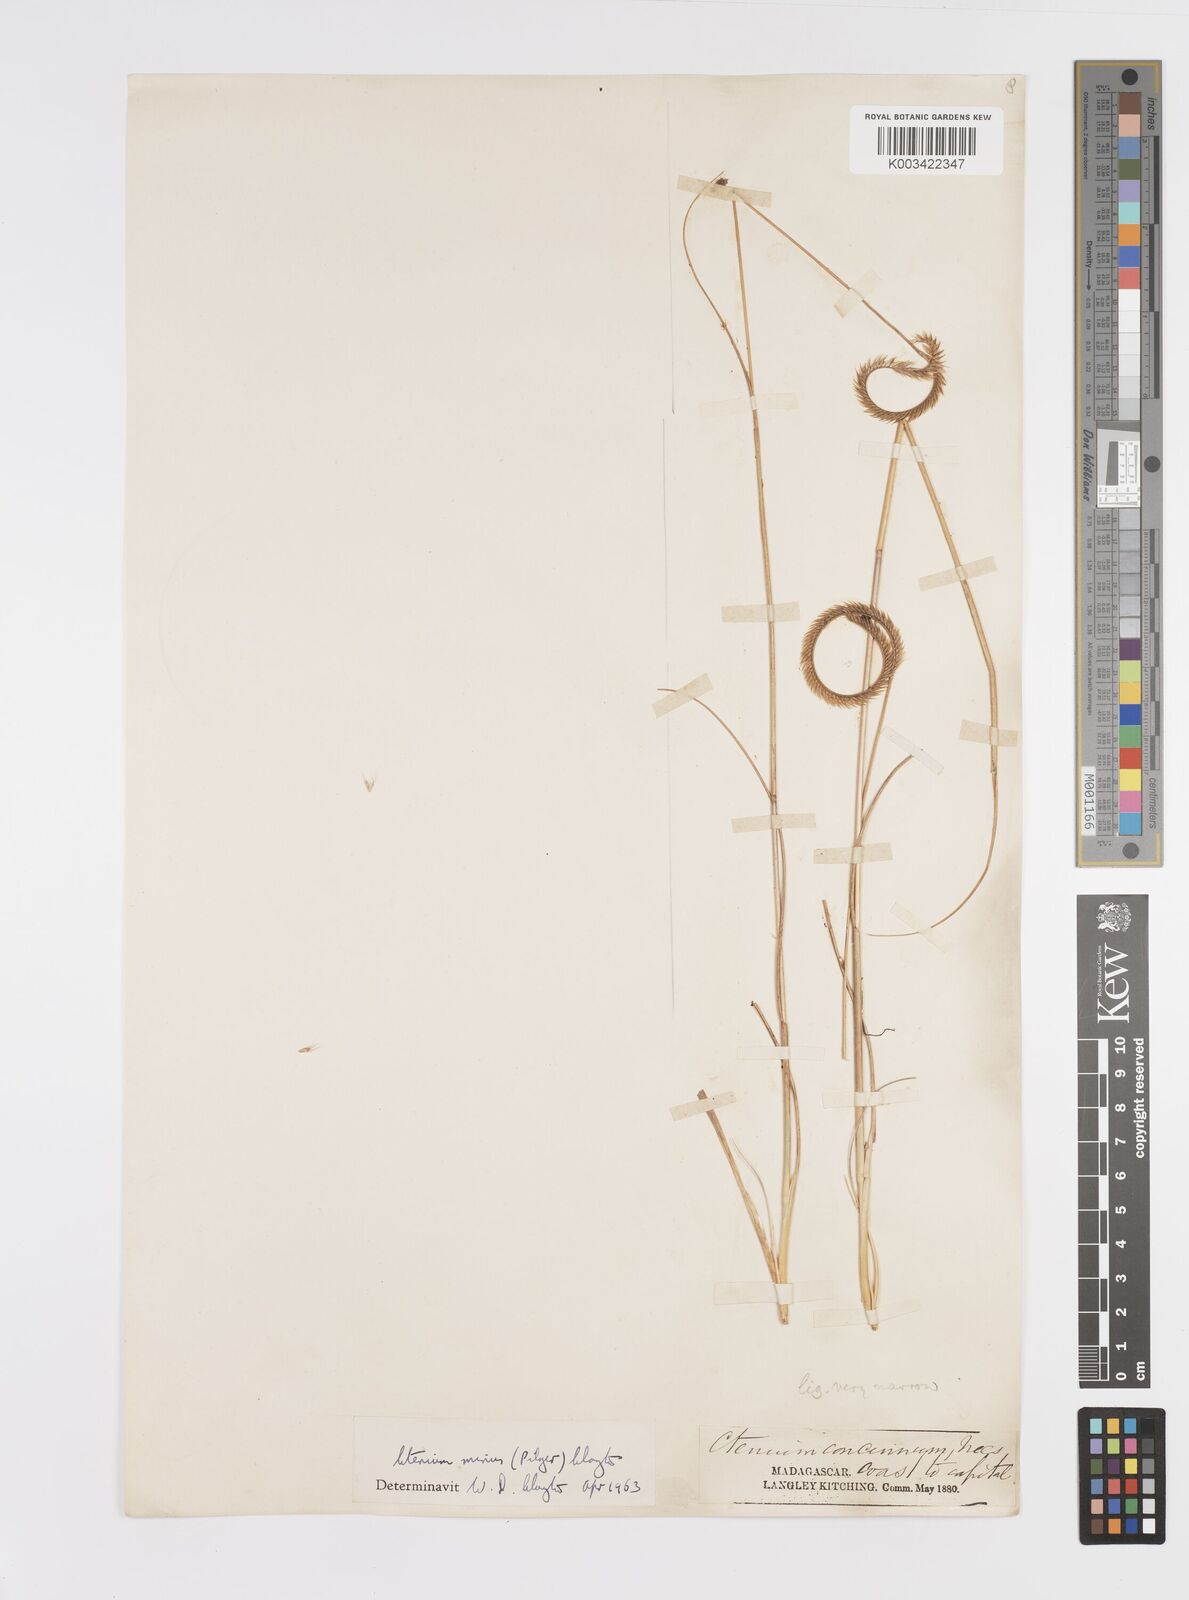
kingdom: Plantae
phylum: Tracheophyta
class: Liliopsida
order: Poales
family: Poaceae
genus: Ctenium
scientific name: Ctenium concinnum
